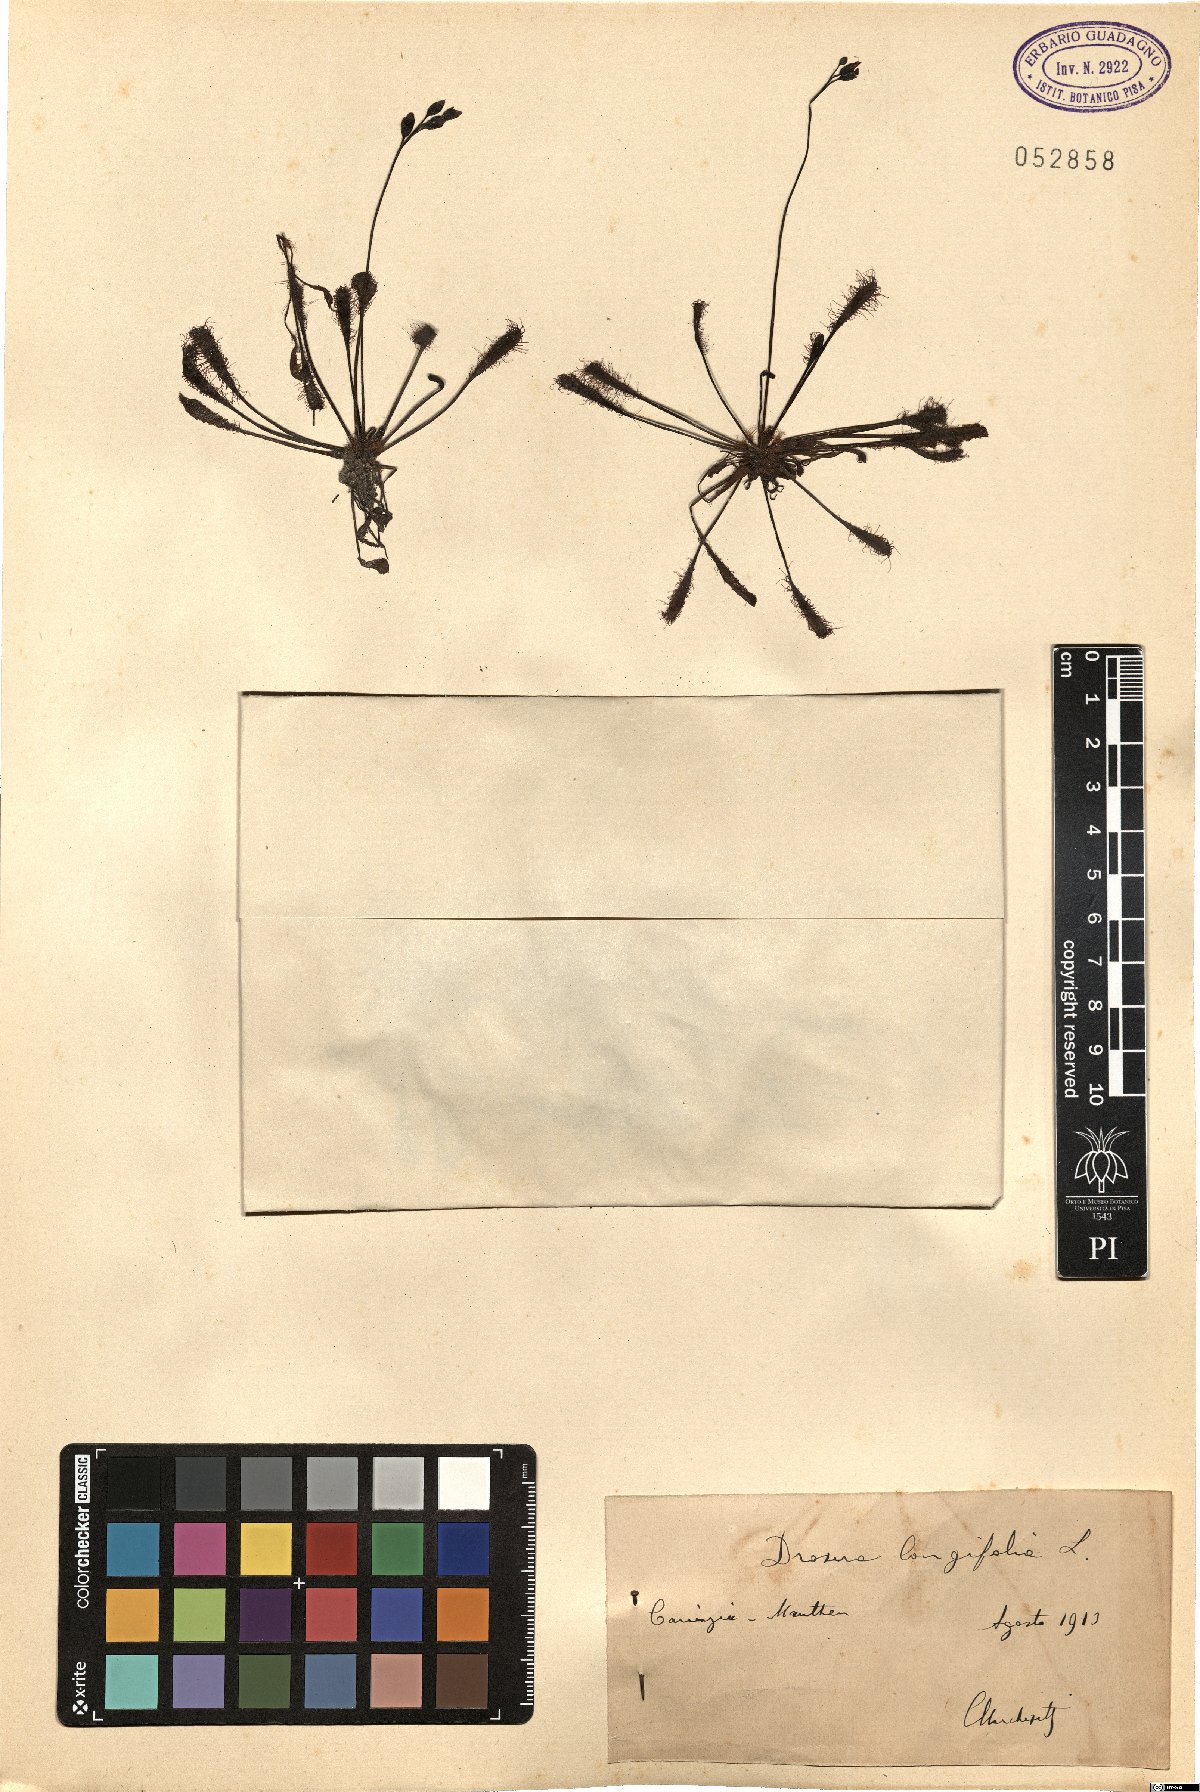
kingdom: Plantae
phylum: Tracheophyta
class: Magnoliopsida
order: Caryophyllales
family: Droseraceae
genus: Drosera
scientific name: Drosera anglica
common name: Great sundew
